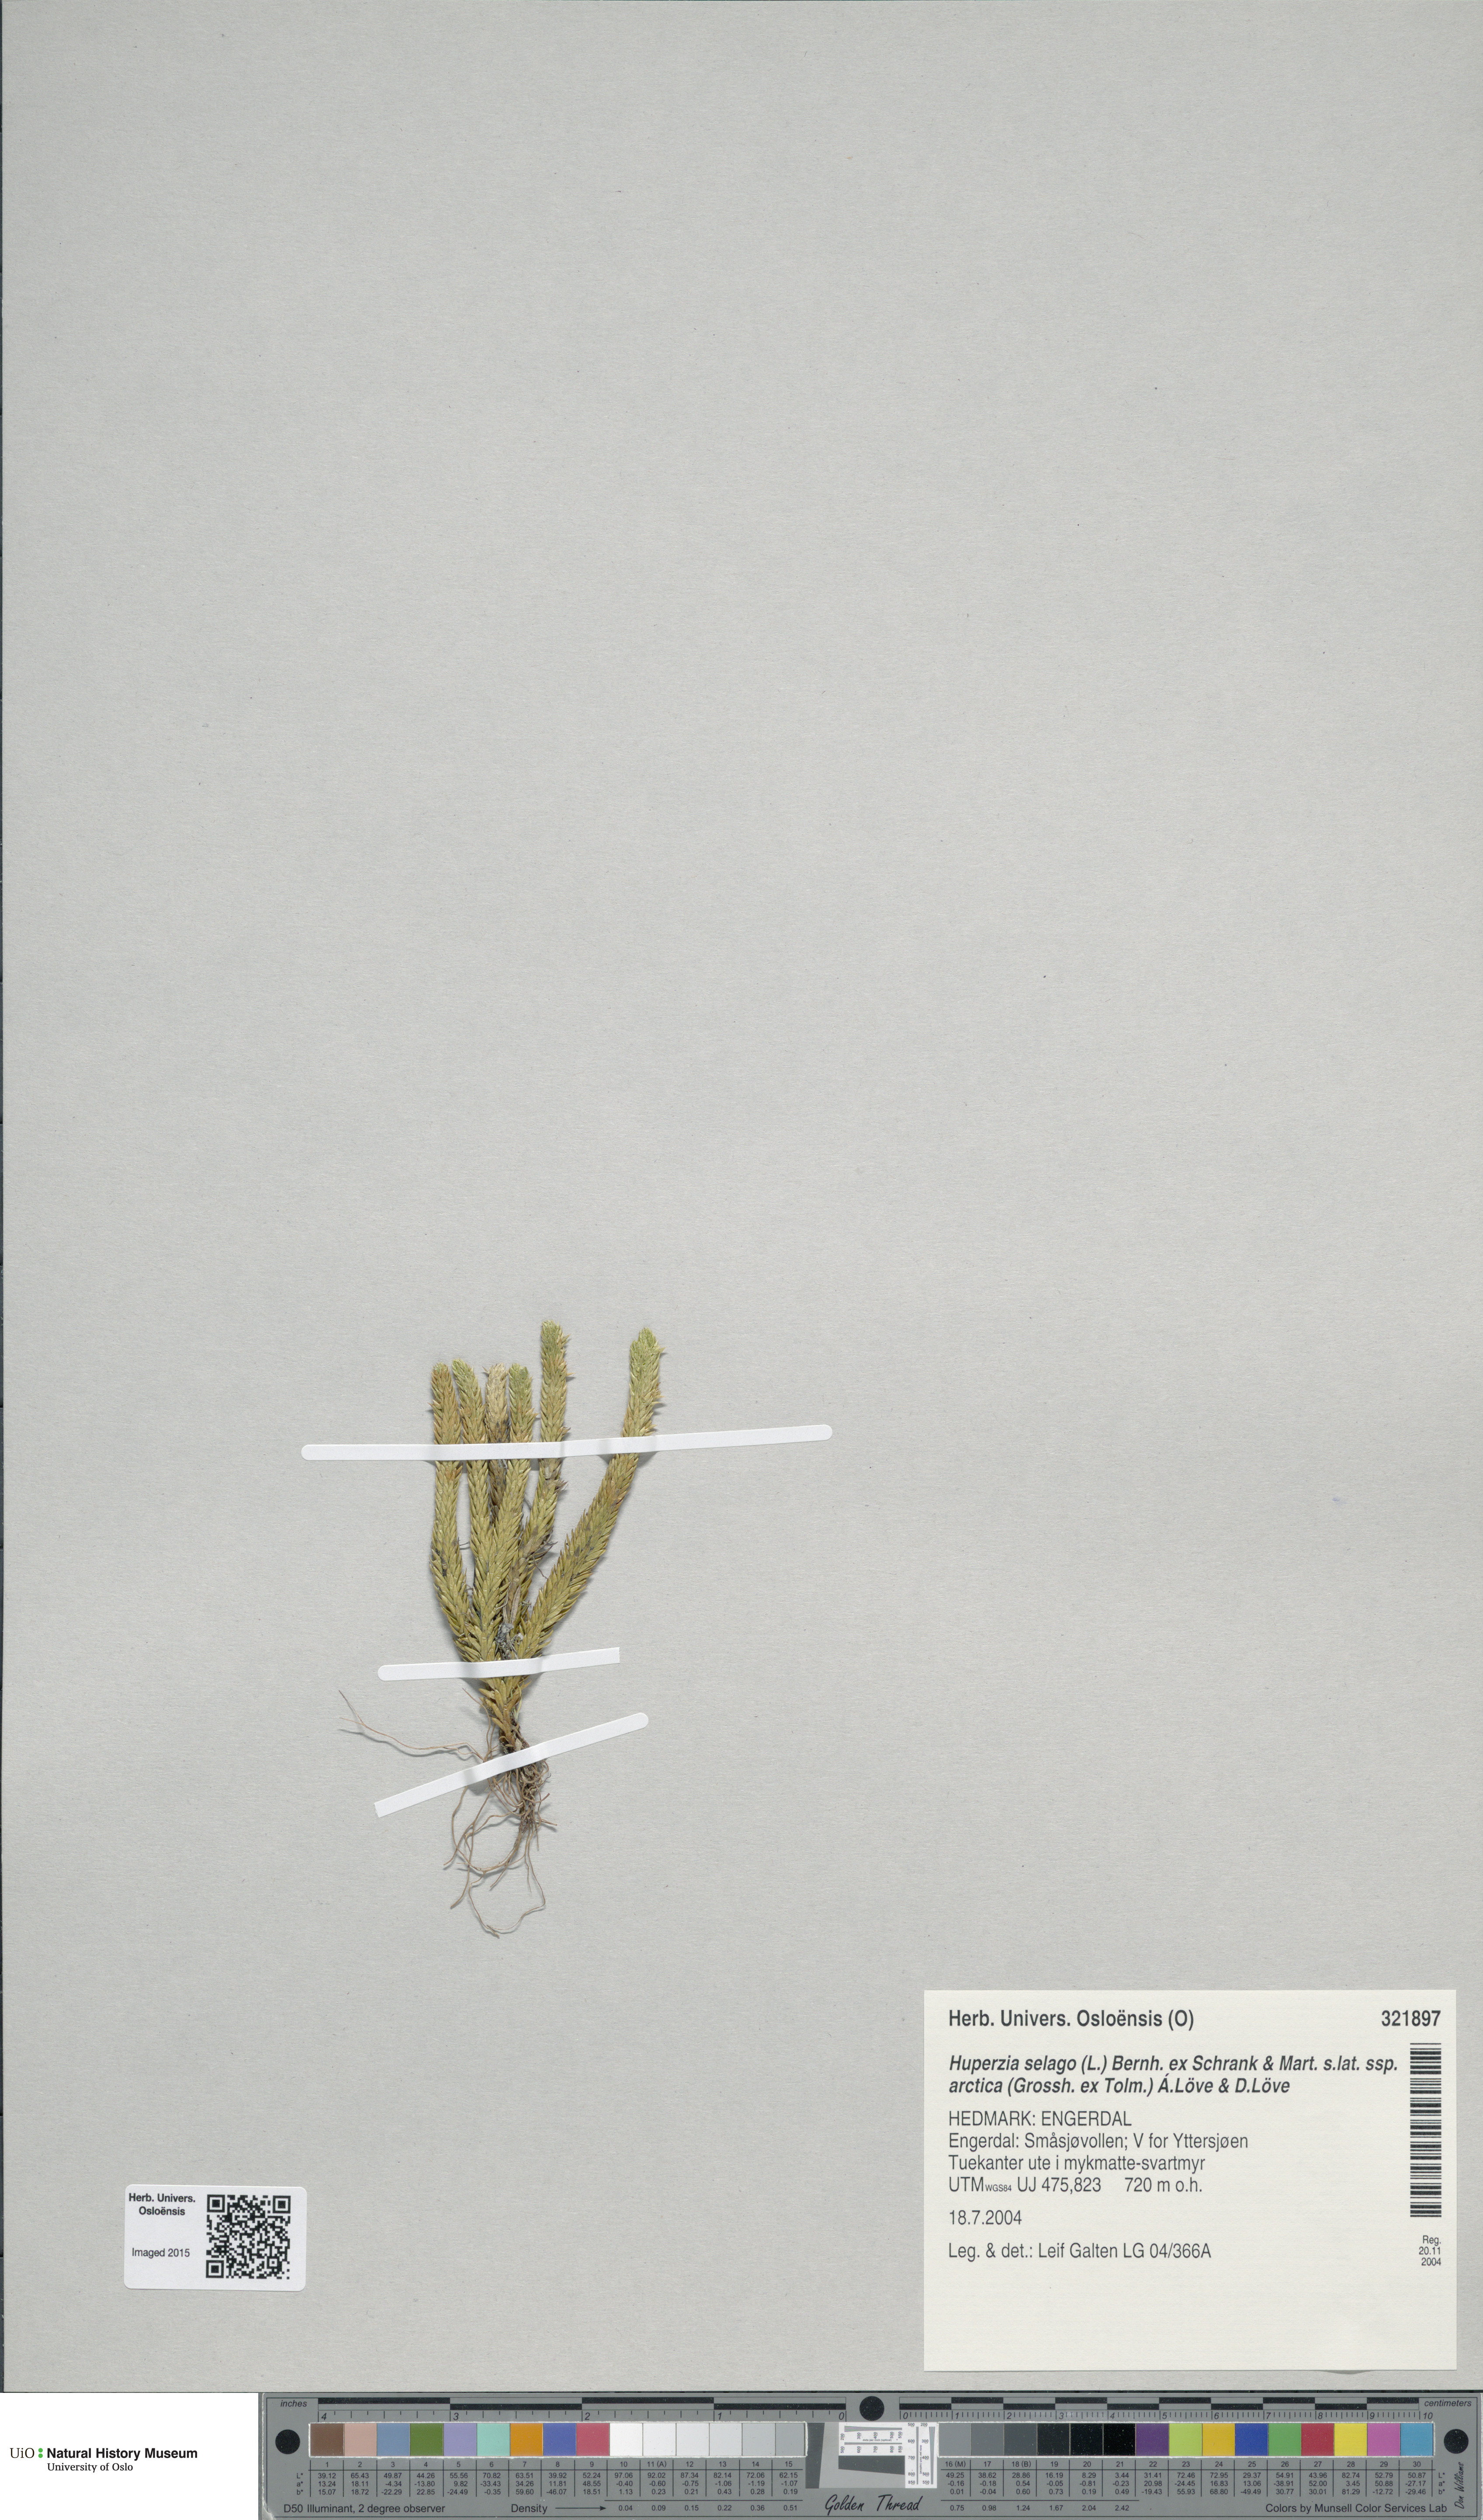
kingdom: Plantae
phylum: Tracheophyta
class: Lycopodiopsida
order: Lycopodiales
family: Lycopodiaceae
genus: Huperzia
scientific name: Huperzia selago
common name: Northern firmoss
